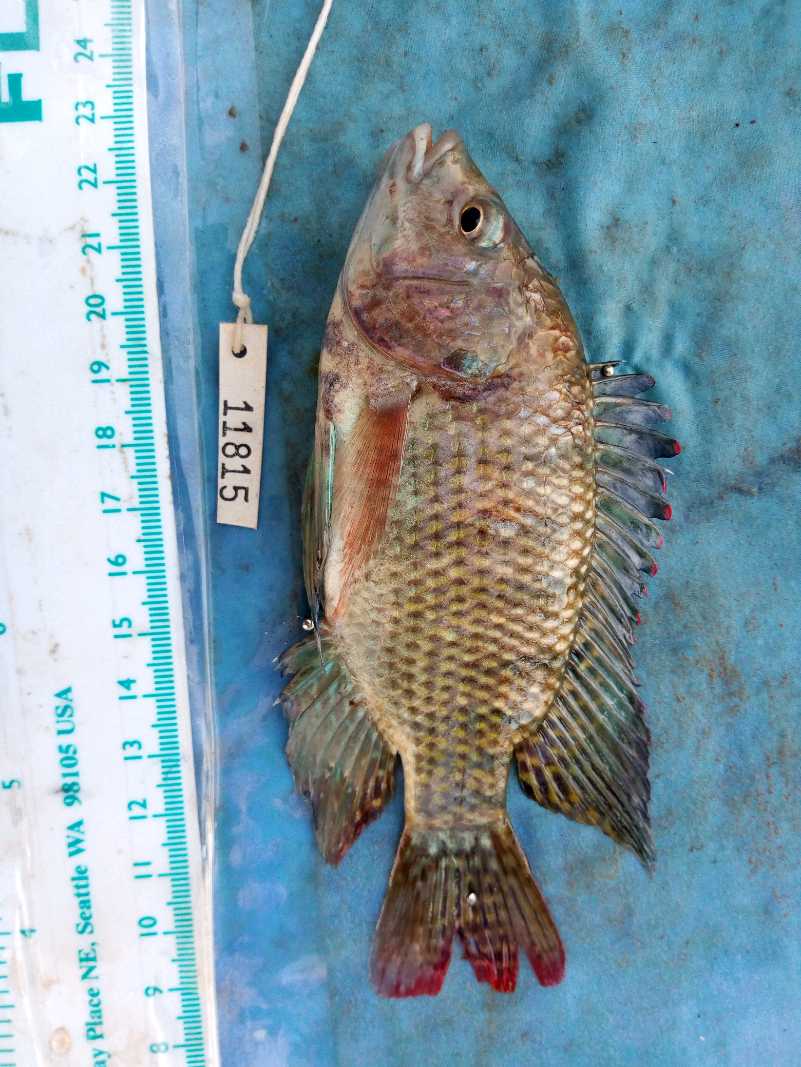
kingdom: Animalia
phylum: Chordata
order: Perciformes
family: Cichlidae
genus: Oreochromis
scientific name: Oreochromis spilurus
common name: Sabaki tilapia
